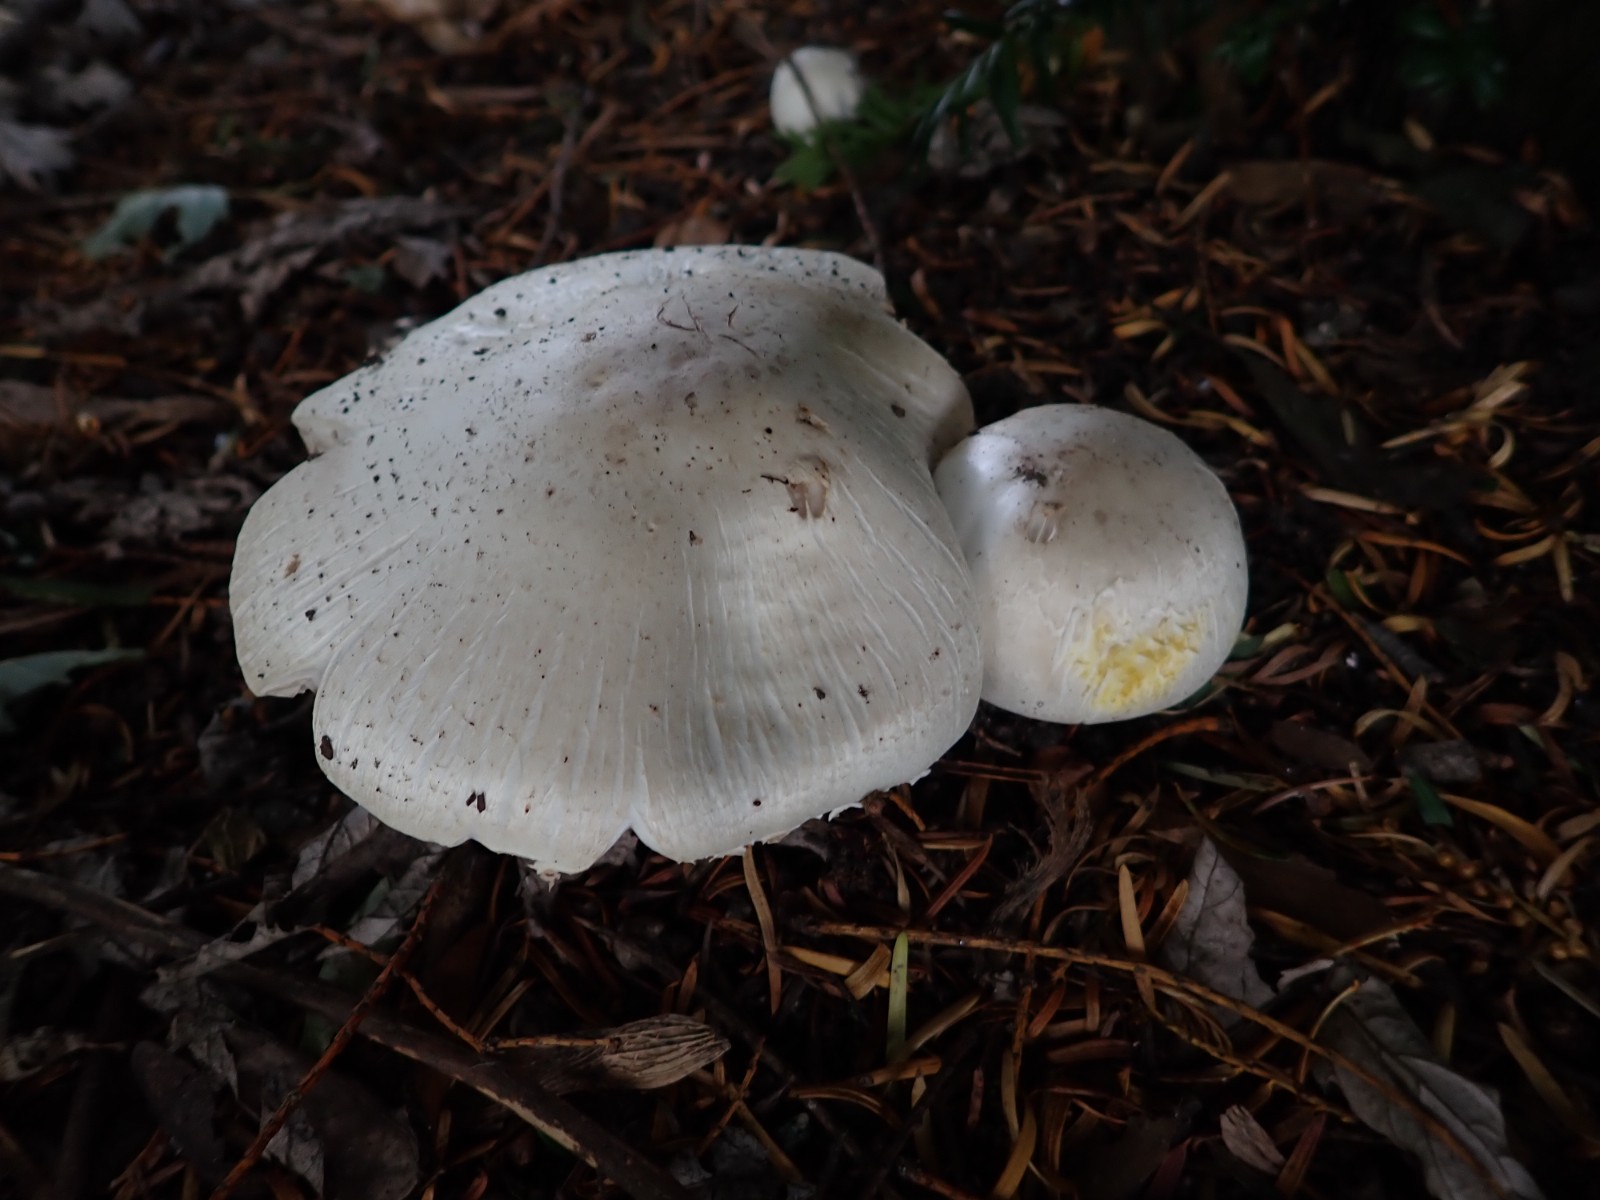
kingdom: Fungi
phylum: Basidiomycota
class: Agaricomycetes
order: Agaricales
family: Agaricaceae
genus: Agaricus
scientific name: Agaricus xanthodermus
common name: karbol-champignon
